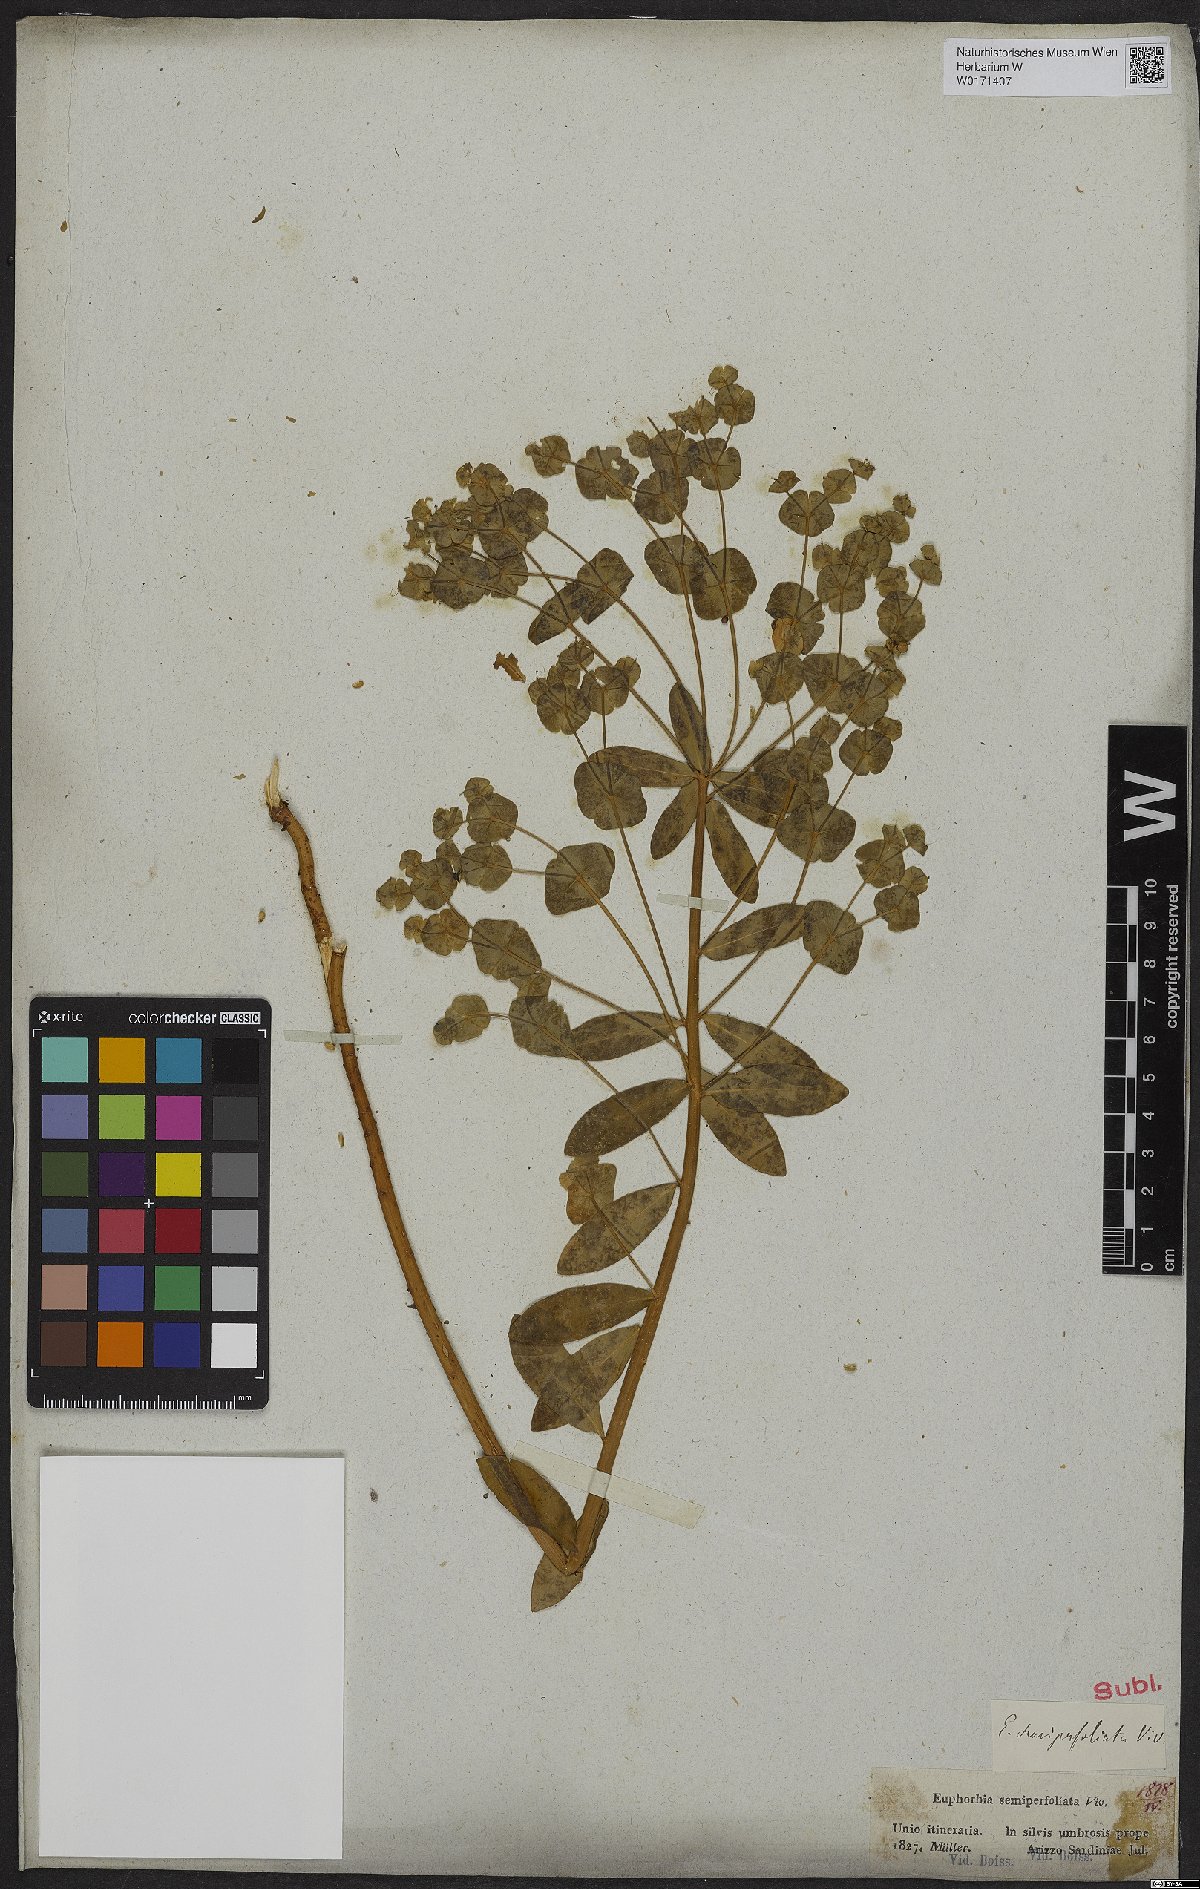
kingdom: Plantae
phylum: Tracheophyta
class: Magnoliopsida
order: Malpighiales
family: Euphorbiaceae
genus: Euphorbia
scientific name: Euphorbia semiperfoliata
